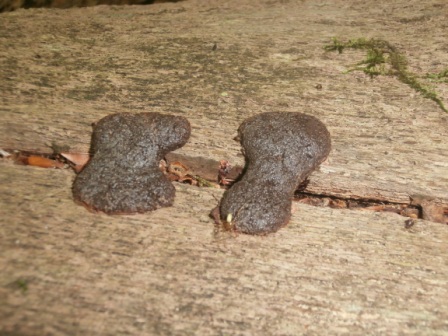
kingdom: Protozoa
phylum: Mycetozoa
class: Myxomycetes
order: Cribrariales
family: Tubiferaceae
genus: Tubifera
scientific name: Tubifera ferruginosa
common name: kanel-støvrør
